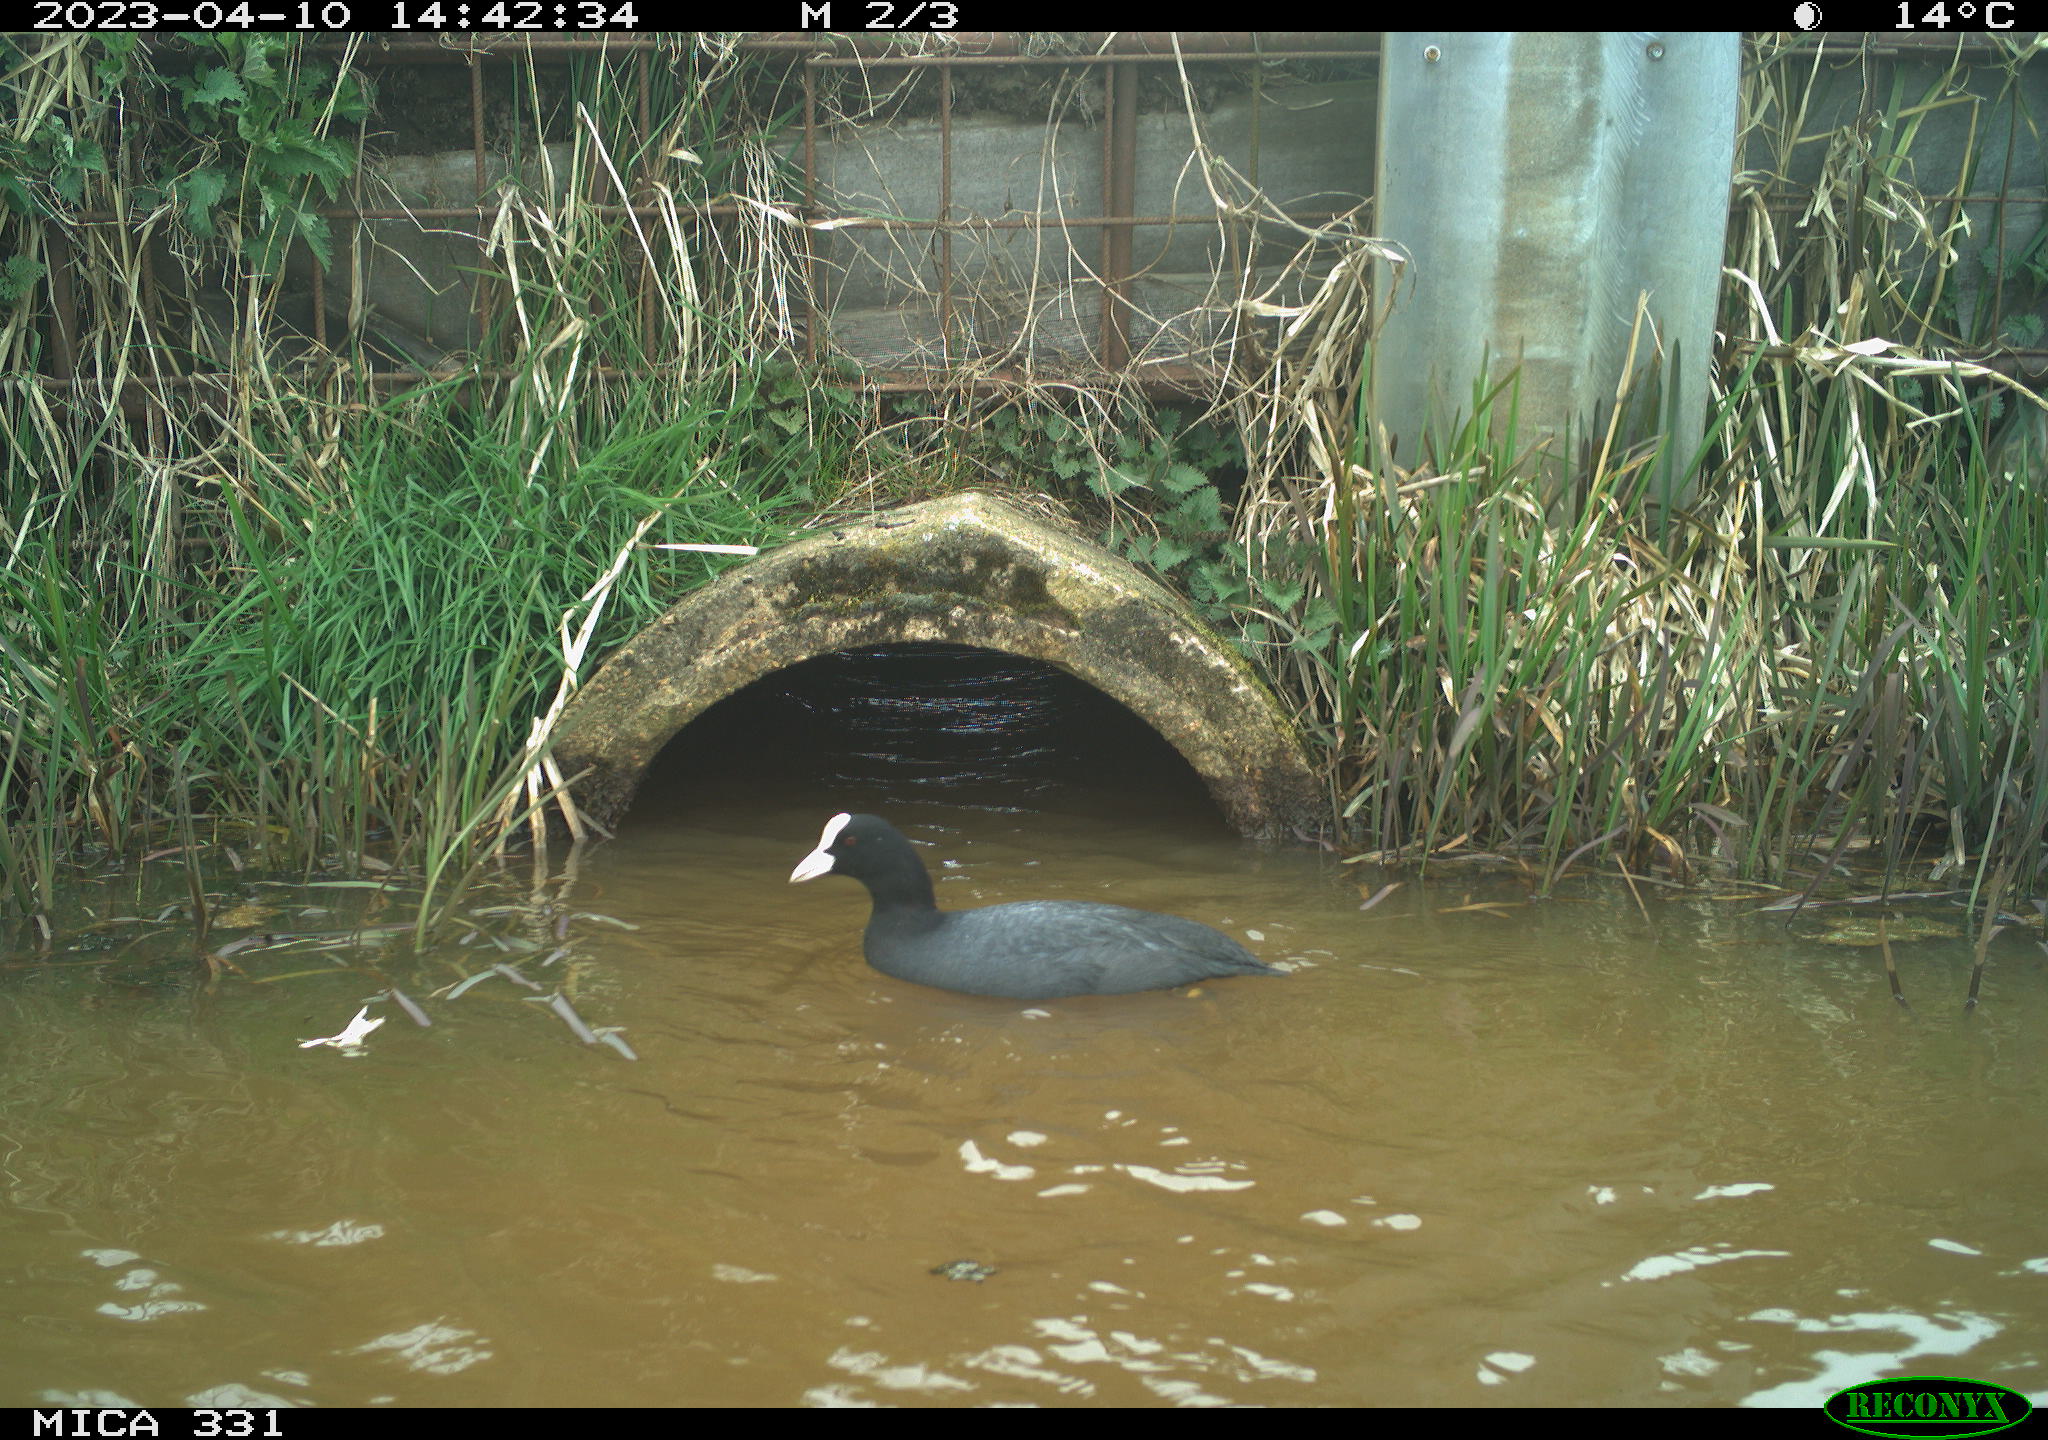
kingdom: Animalia
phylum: Chordata
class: Aves
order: Gruiformes
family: Rallidae
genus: Gallinula
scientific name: Gallinula chloropus
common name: Common moorhen
